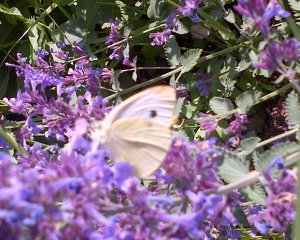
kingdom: Animalia
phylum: Arthropoda
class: Insecta
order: Lepidoptera
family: Pieridae
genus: Pieris
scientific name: Pieris rapae
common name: Cabbage White
